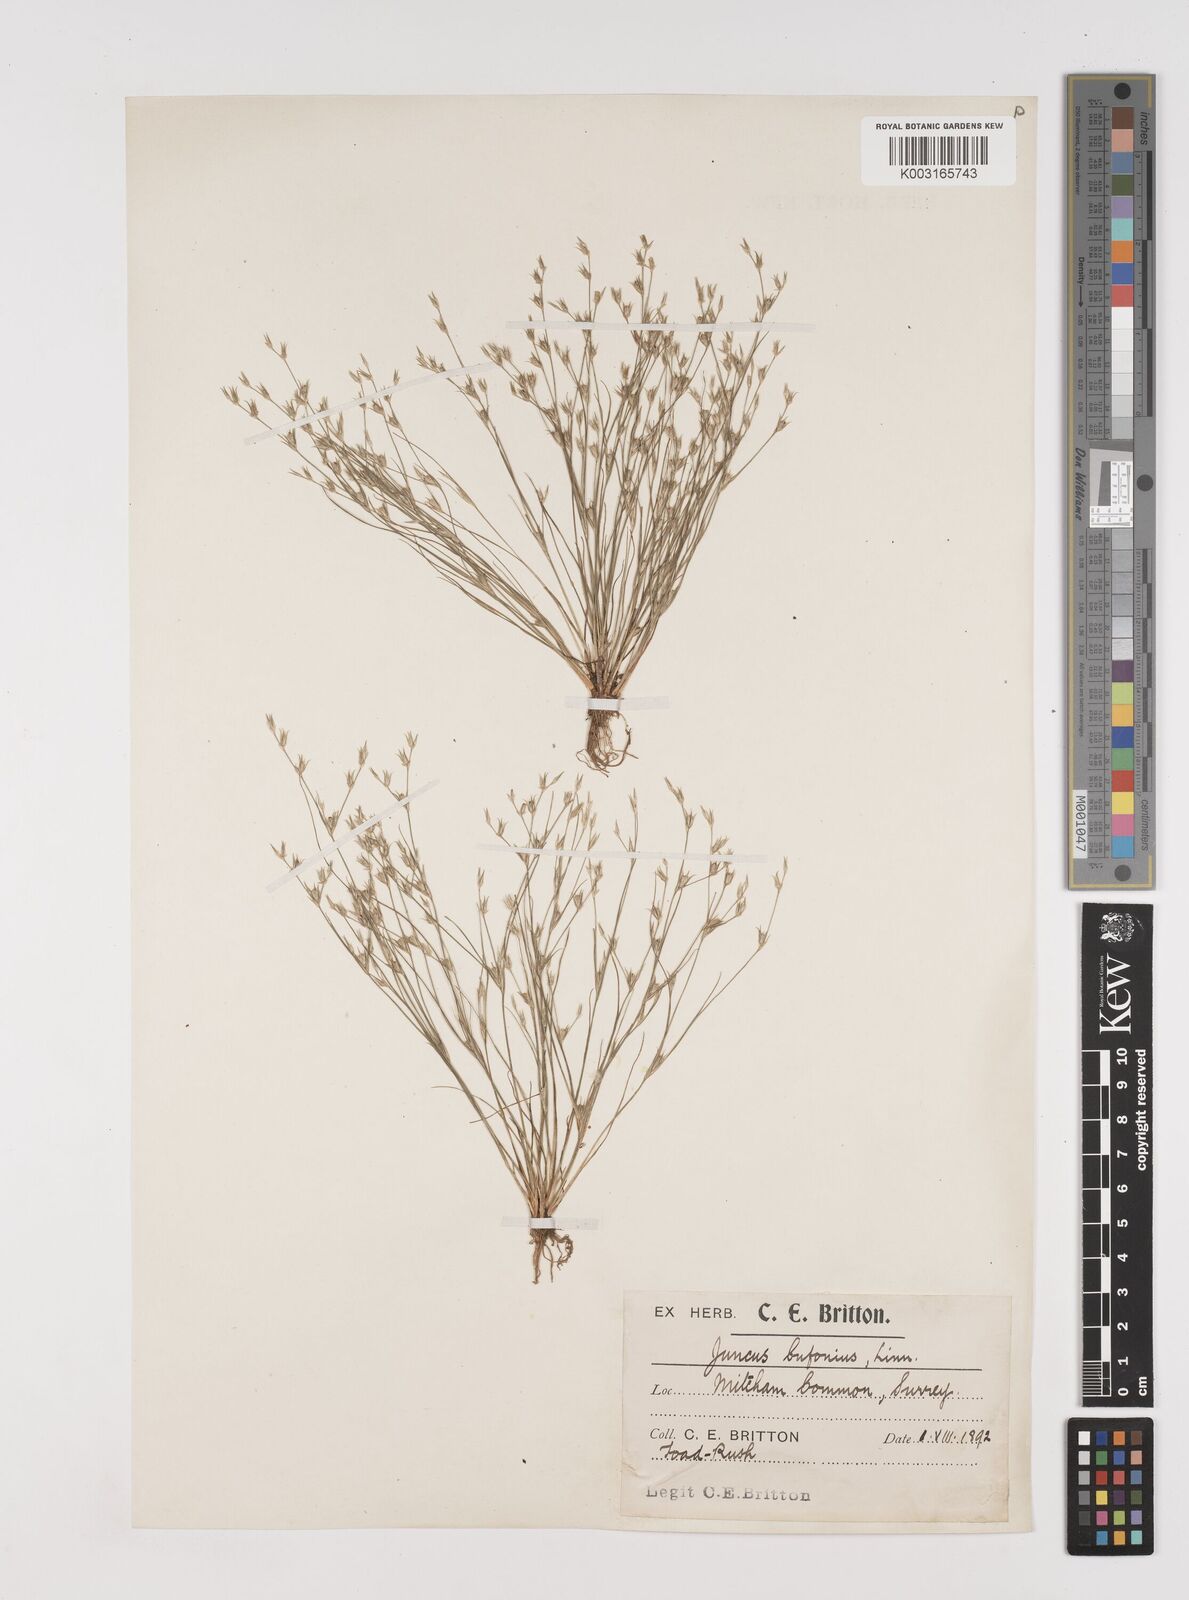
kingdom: Plantae
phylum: Tracheophyta
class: Liliopsida
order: Poales
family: Juncaceae
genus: Juncus
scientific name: Juncus bufonius
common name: Toad rush
